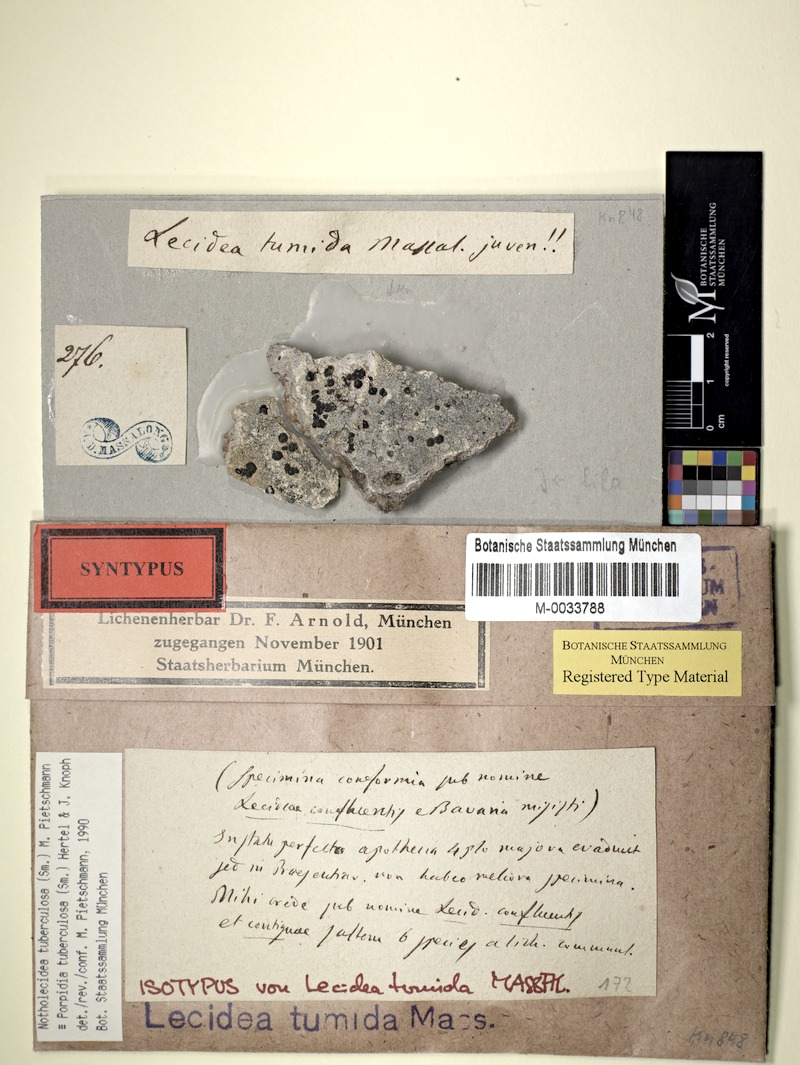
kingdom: Fungi
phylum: Ascomycota
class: Lecanoromycetes
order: Lecideales
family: Lecideaceae
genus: Porpidia
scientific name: Porpidia tuberculosa
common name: Boulder lichen
